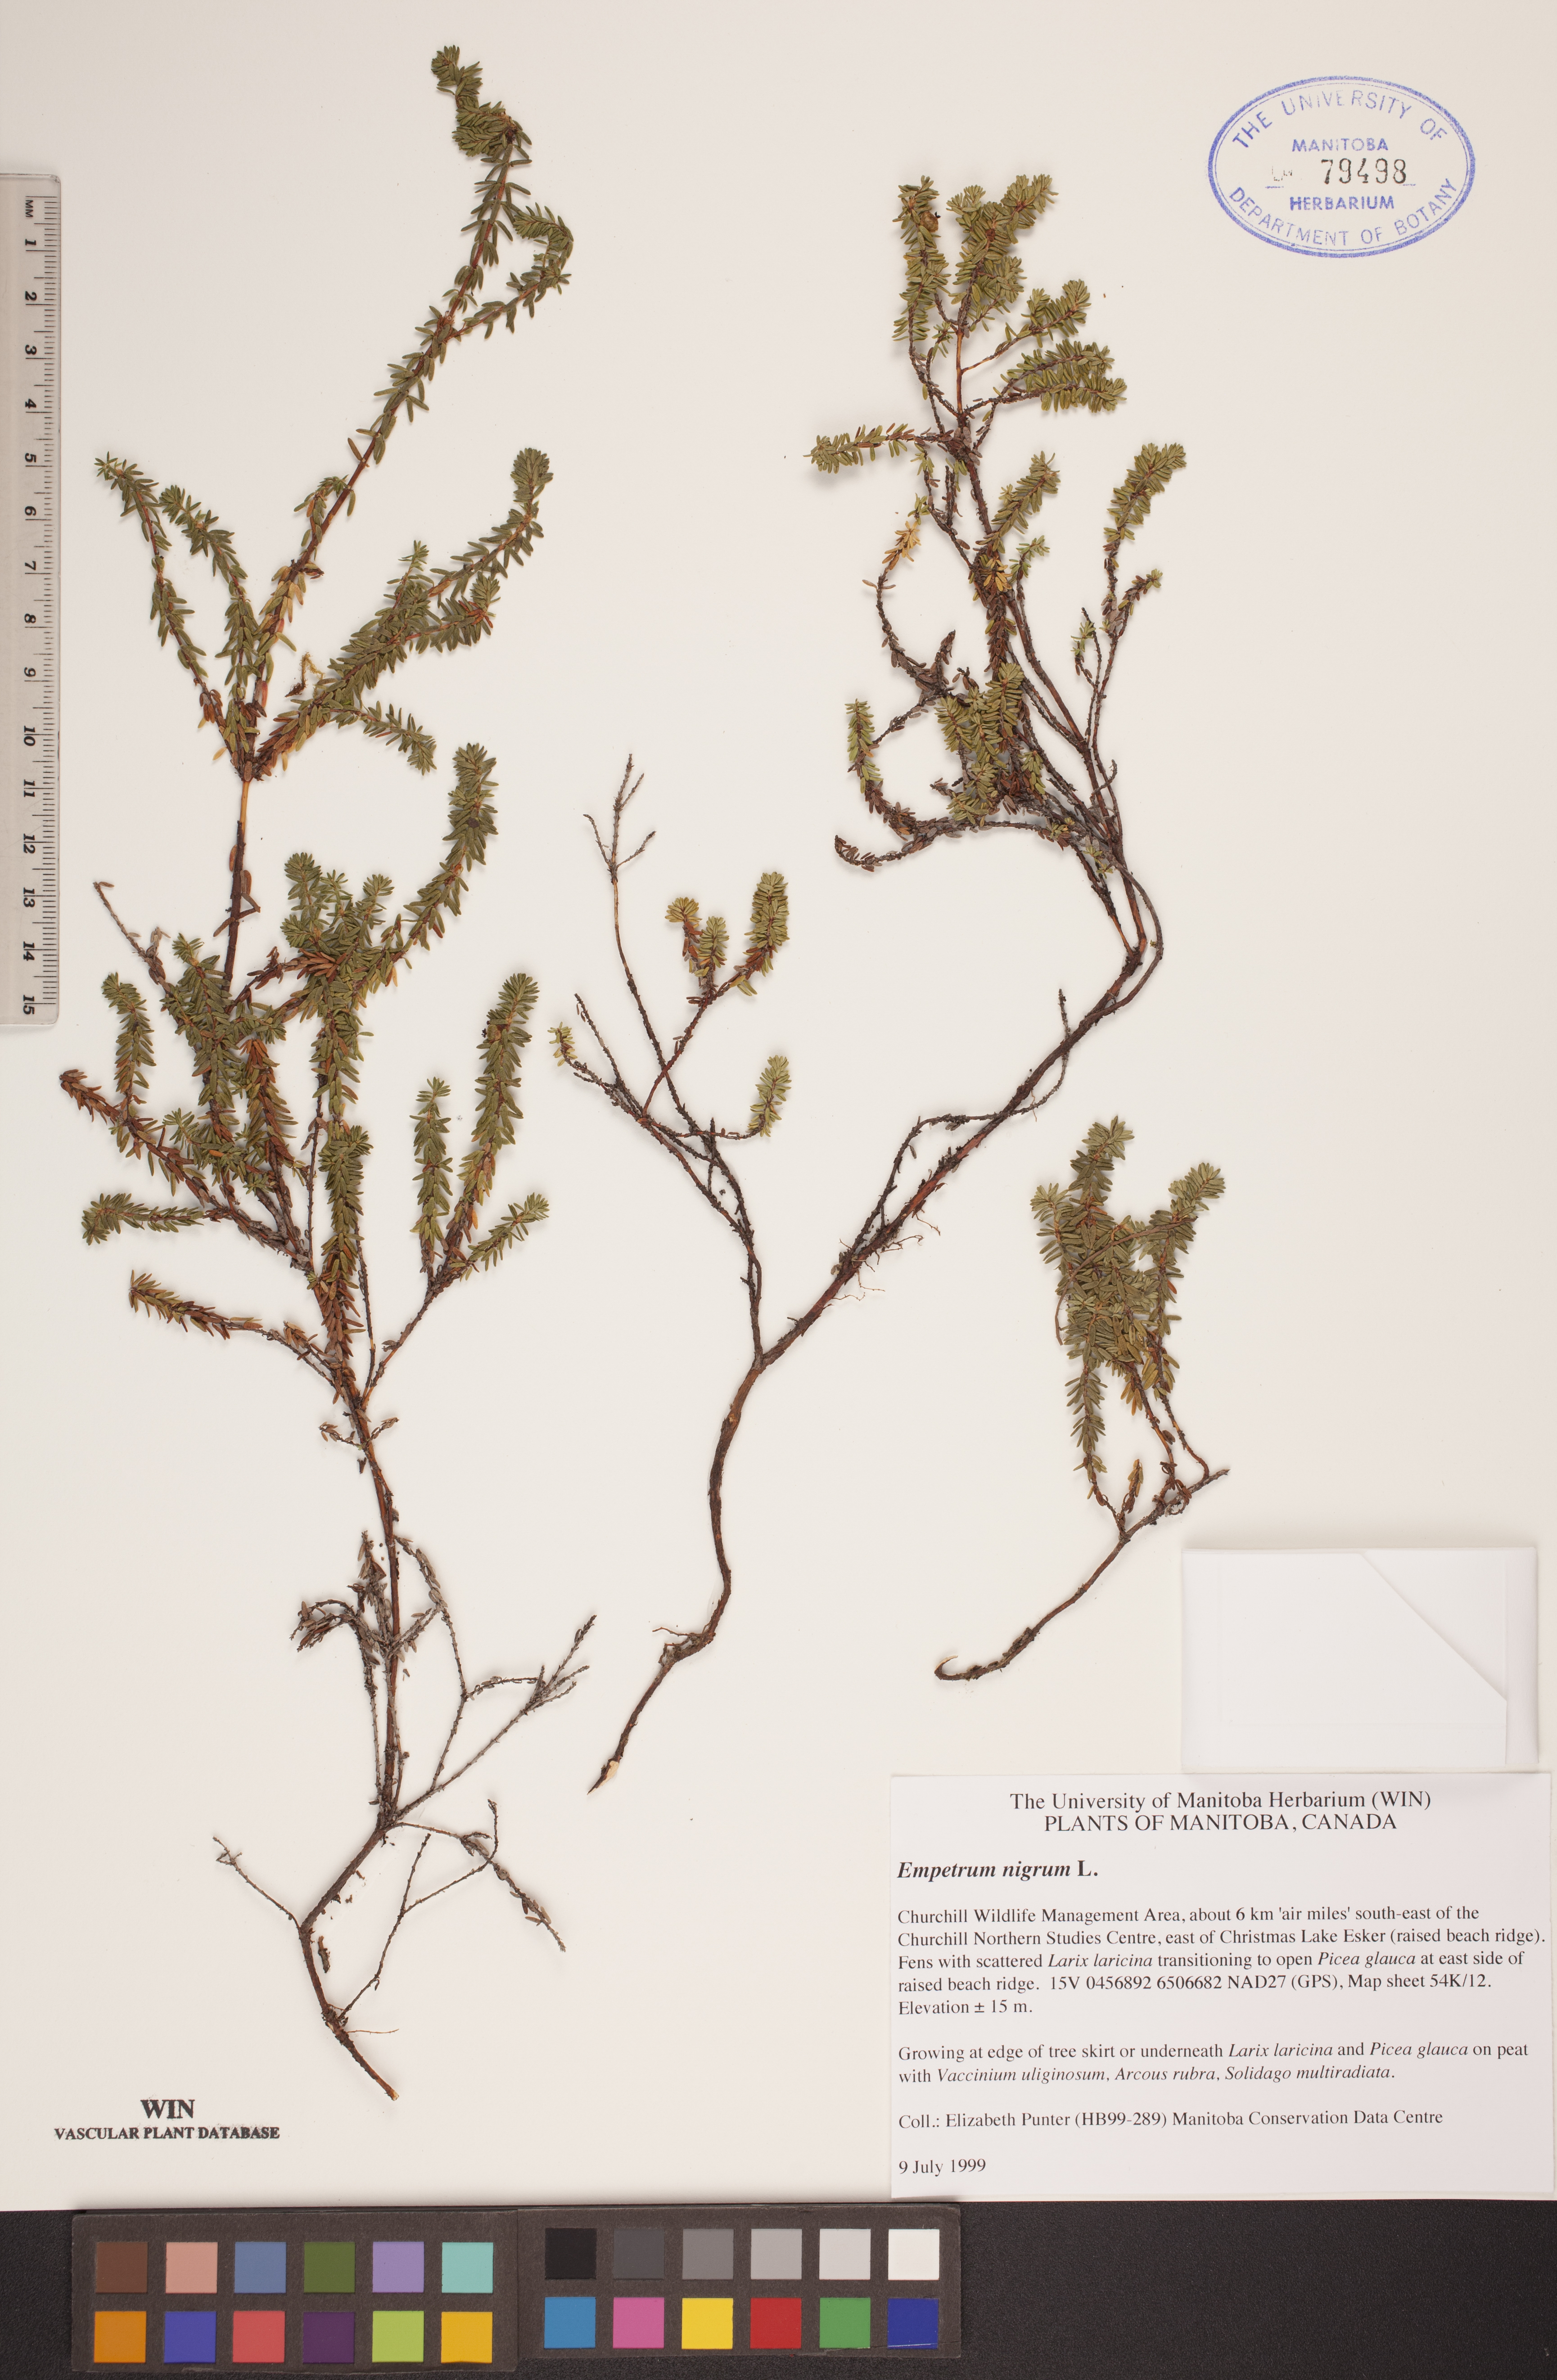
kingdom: Plantae
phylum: Tracheophyta
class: Magnoliopsida
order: Ericales
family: Ericaceae
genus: Empetrum
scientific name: Empetrum nigrum
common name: Black crowberry
